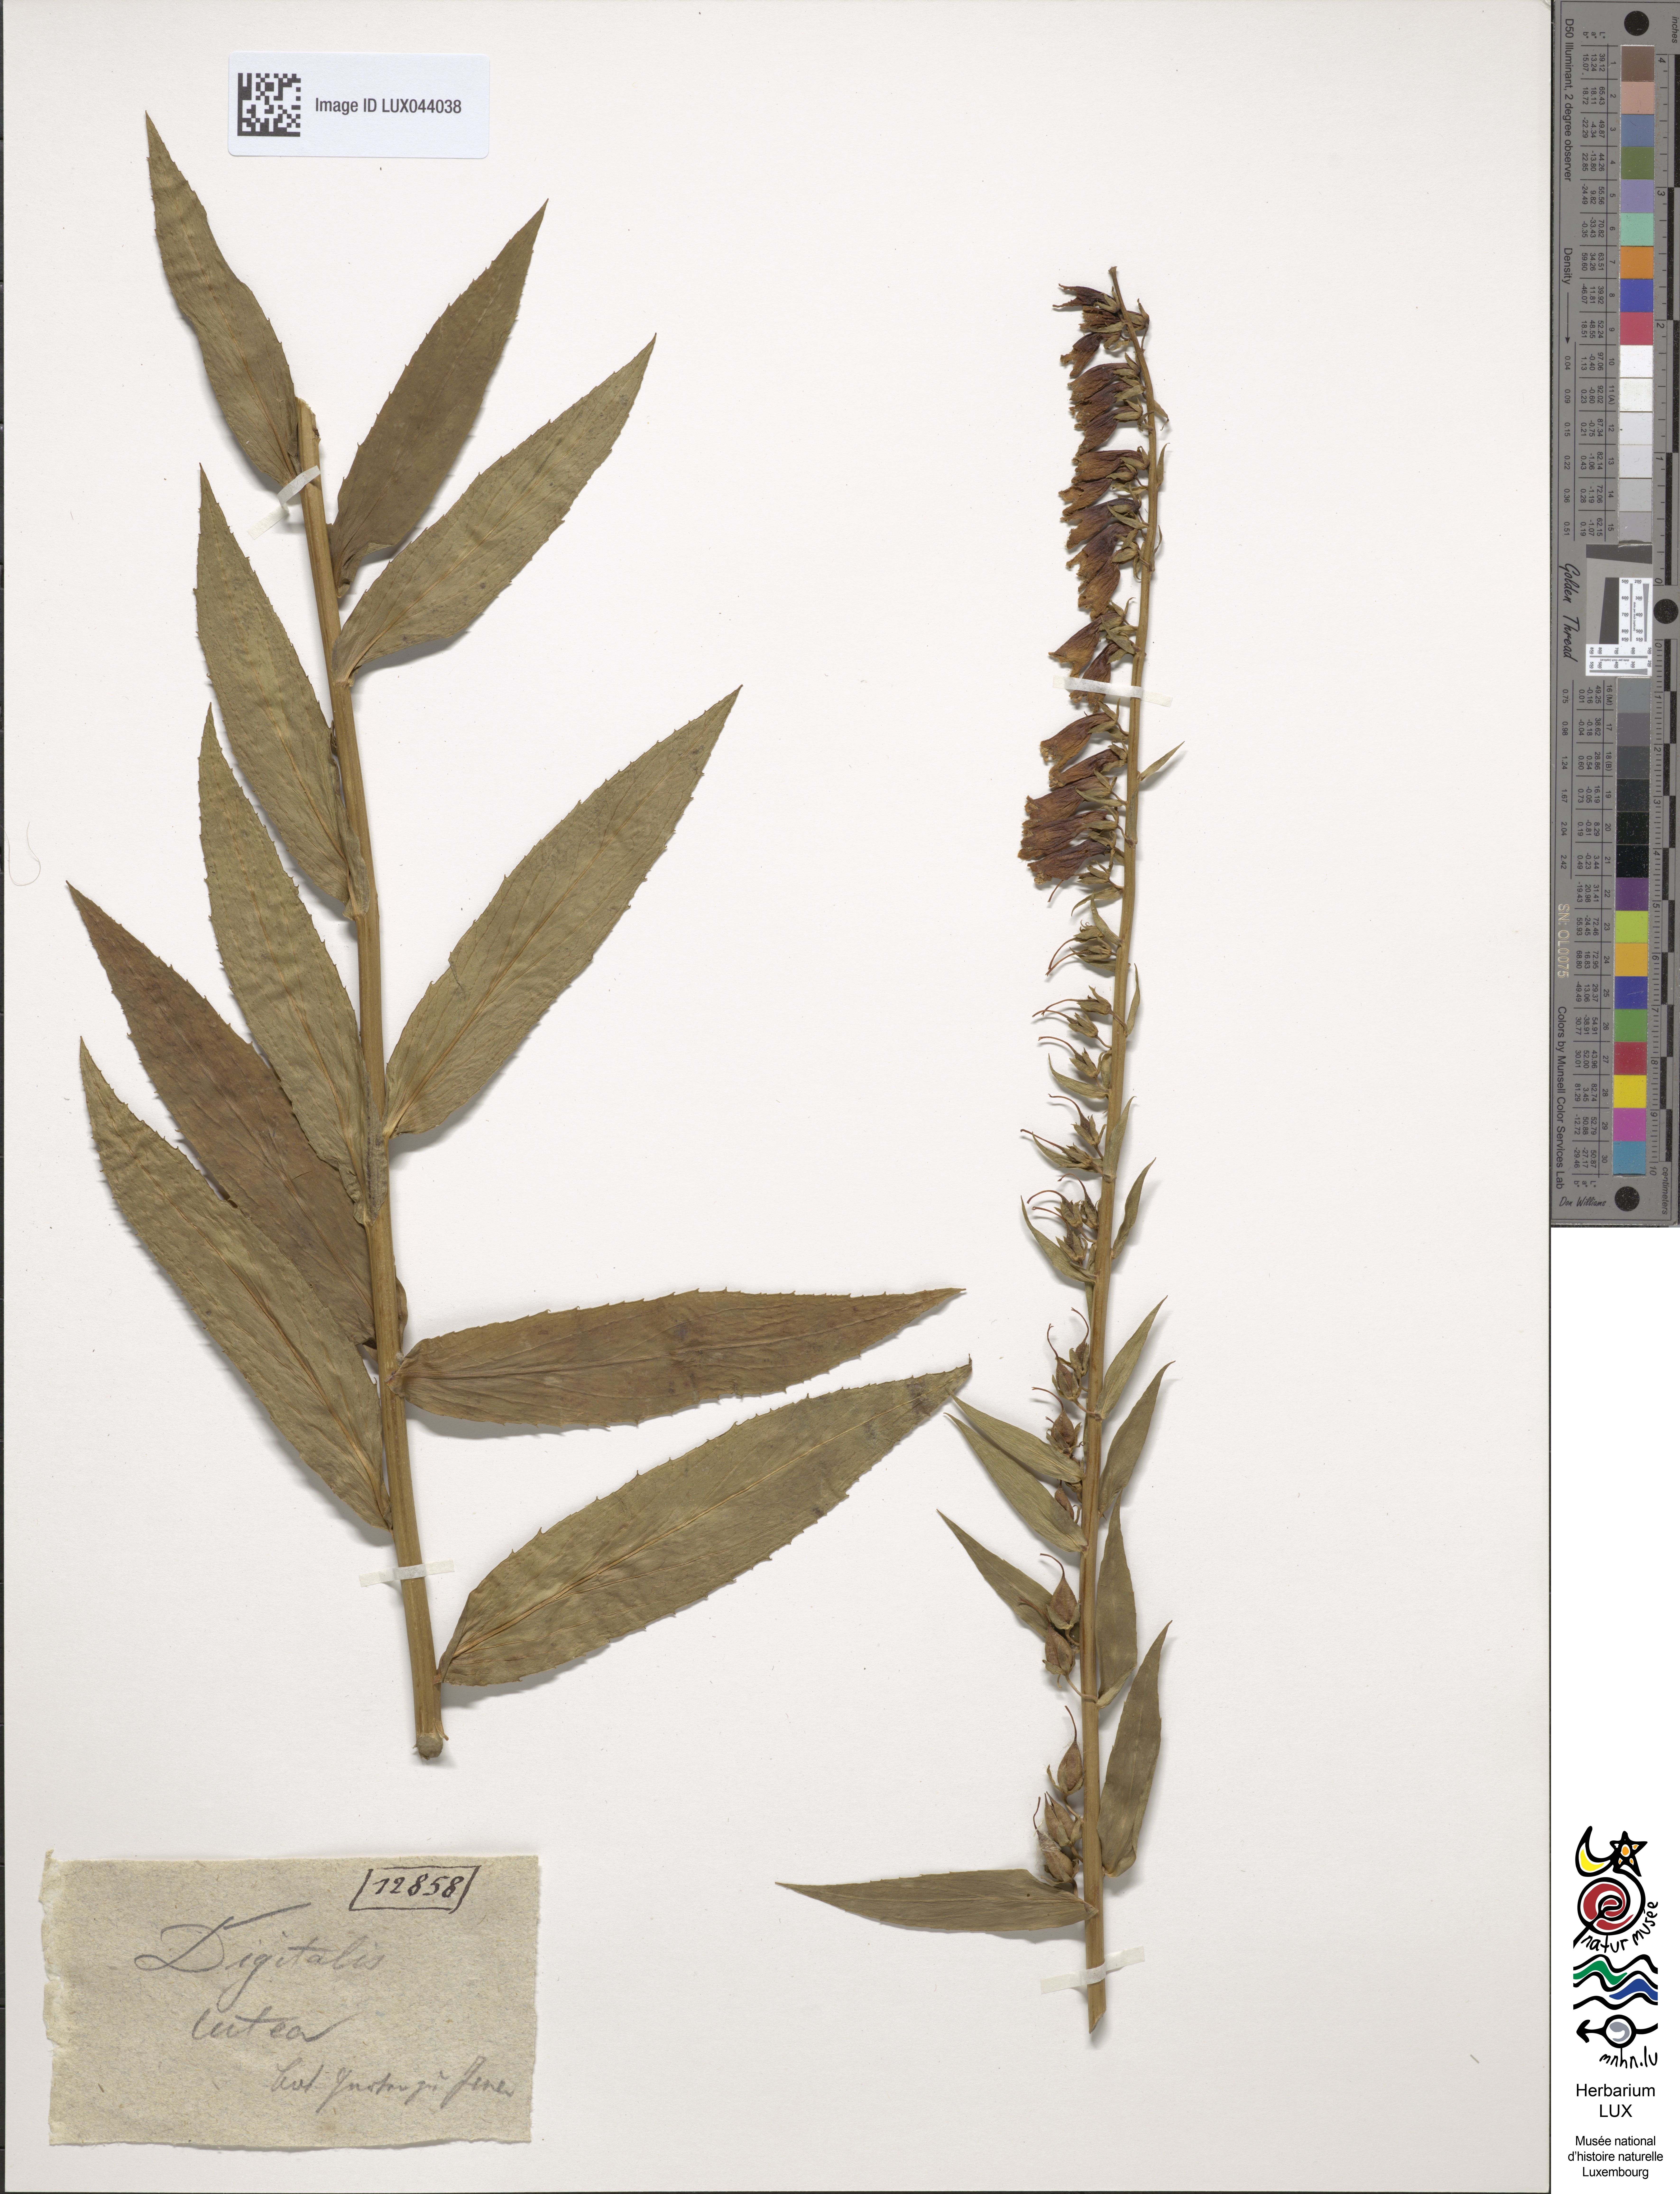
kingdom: Plantae
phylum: Tracheophyta
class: Magnoliopsida
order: Lamiales
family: Plantaginaceae
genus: Digitalis
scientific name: Digitalis lutea
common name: Straw foxglove
